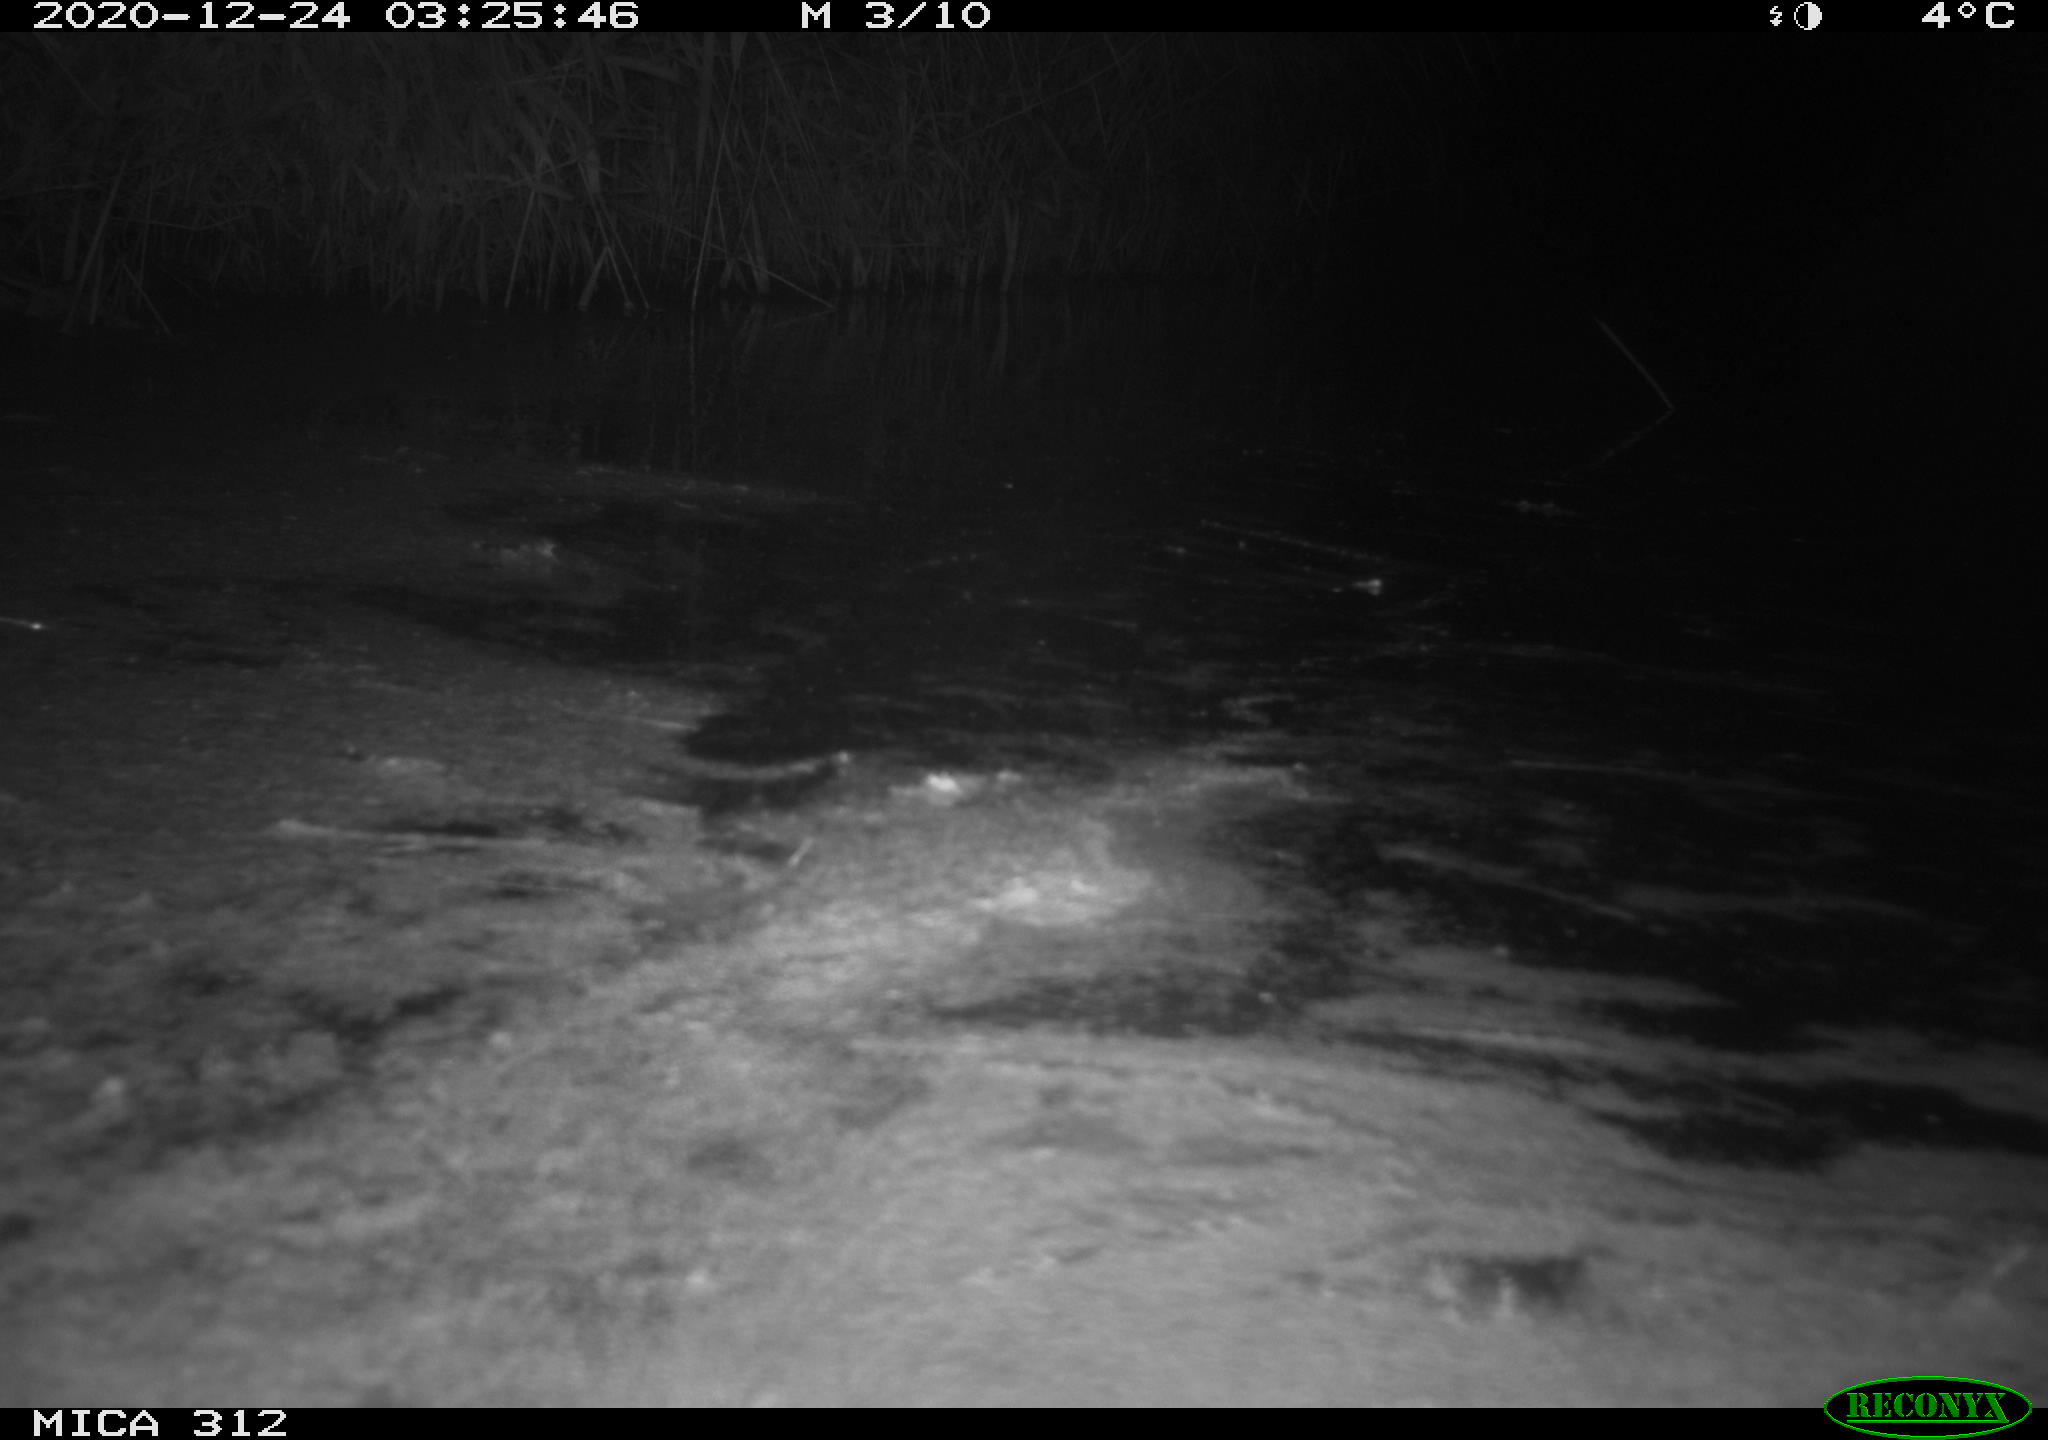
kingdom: Animalia
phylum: Chordata
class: Mammalia
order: Rodentia
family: Cricetidae
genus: Ondatra
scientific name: Ondatra zibethicus
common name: Muskrat
